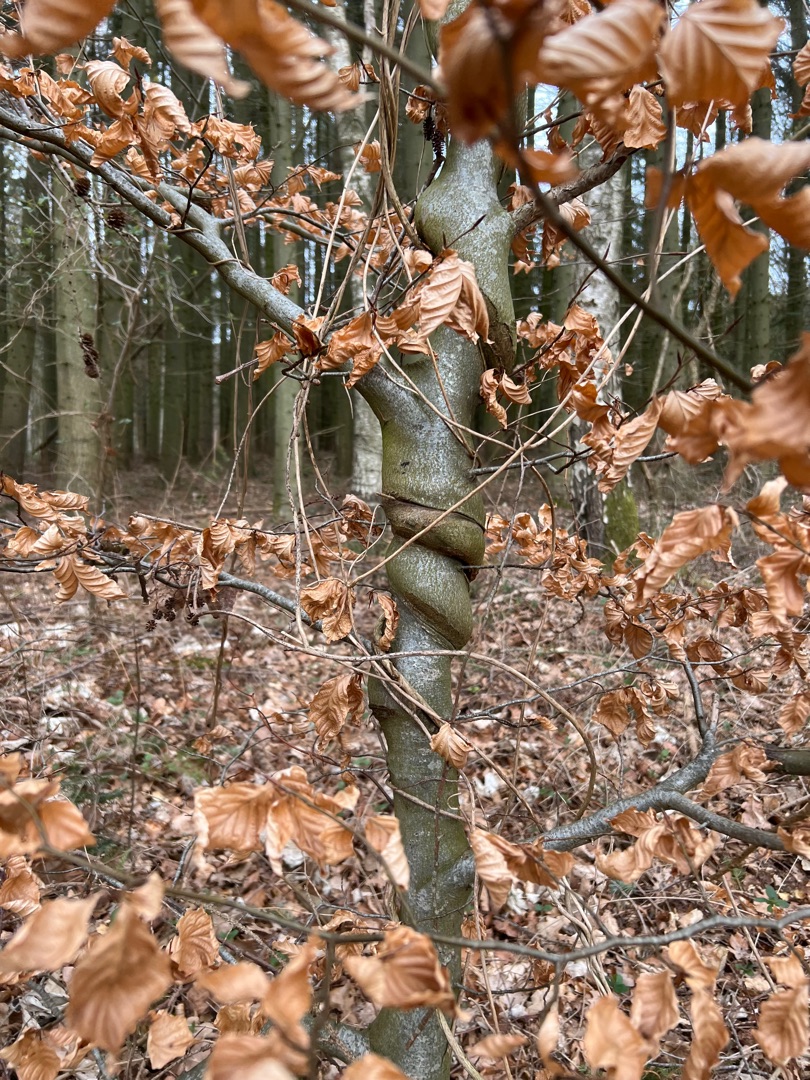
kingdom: Plantae
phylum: Tracheophyta
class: Magnoliopsida
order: Fagales
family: Fagaceae
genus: Fagus
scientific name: Fagus sylvatica
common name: Bøg
